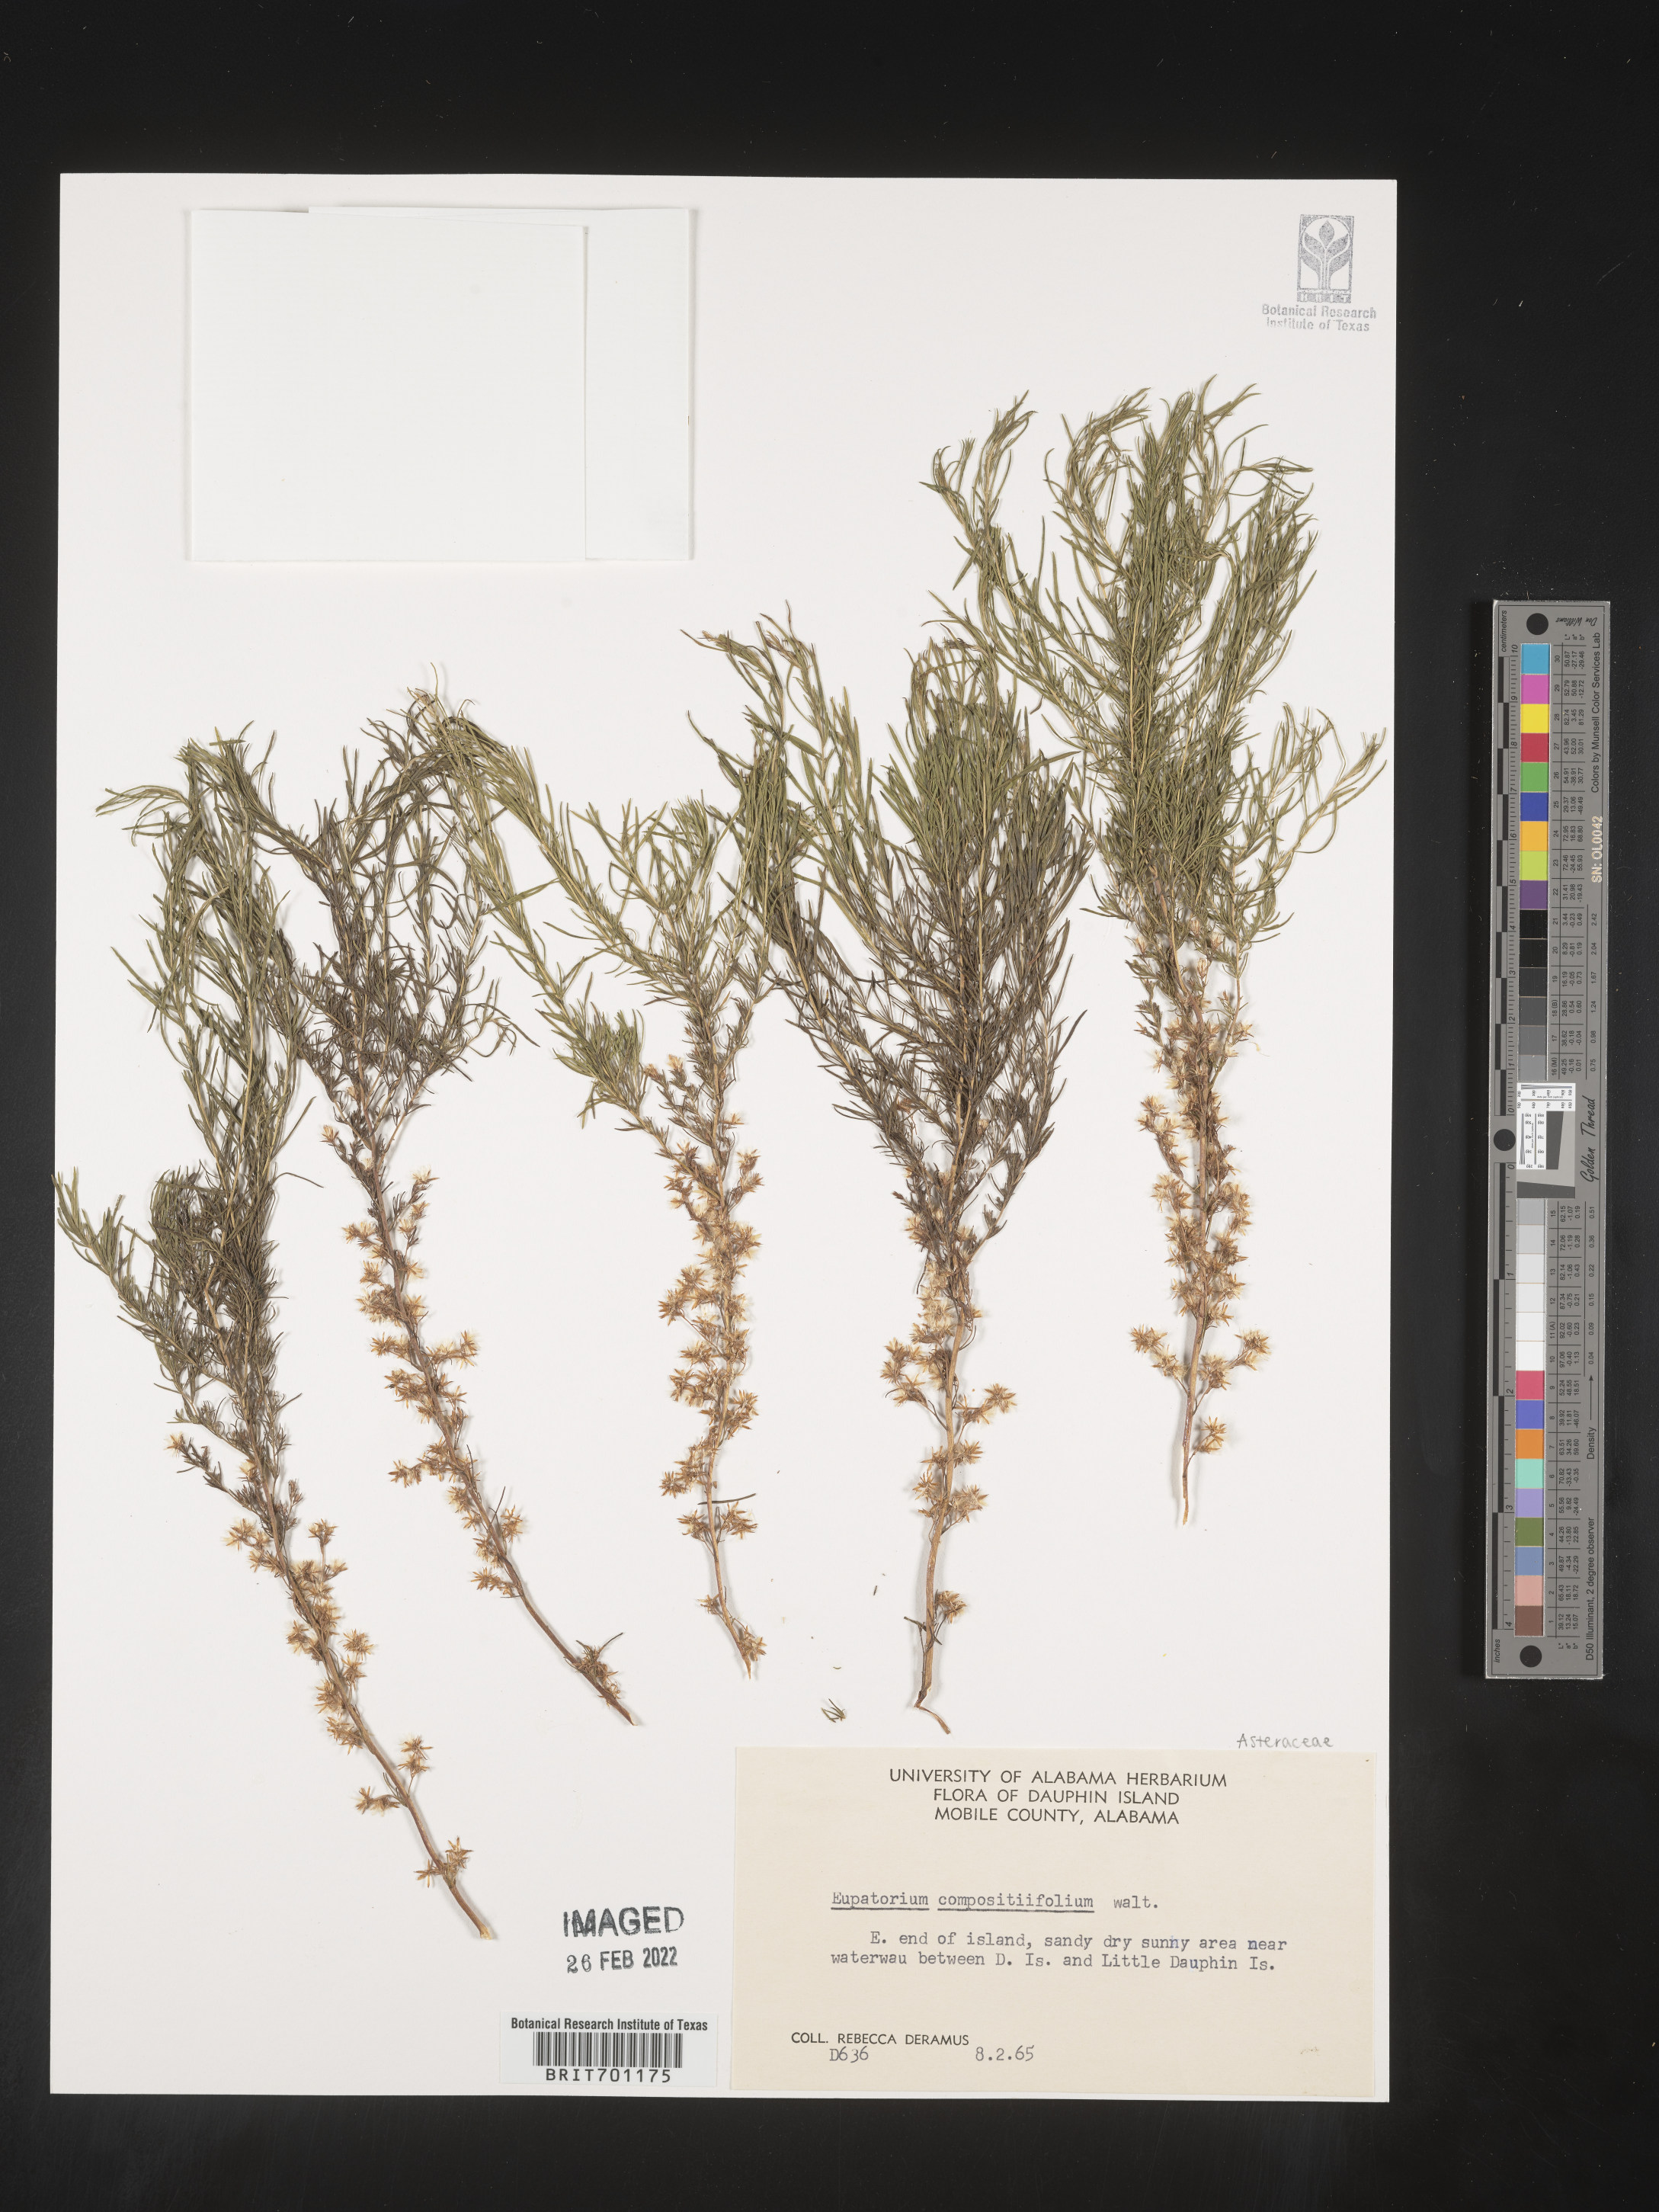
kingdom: Plantae
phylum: Tracheophyta
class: Magnoliopsida
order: Asterales
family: Asteraceae
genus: Eupatorium
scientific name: Eupatorium compositifolium
